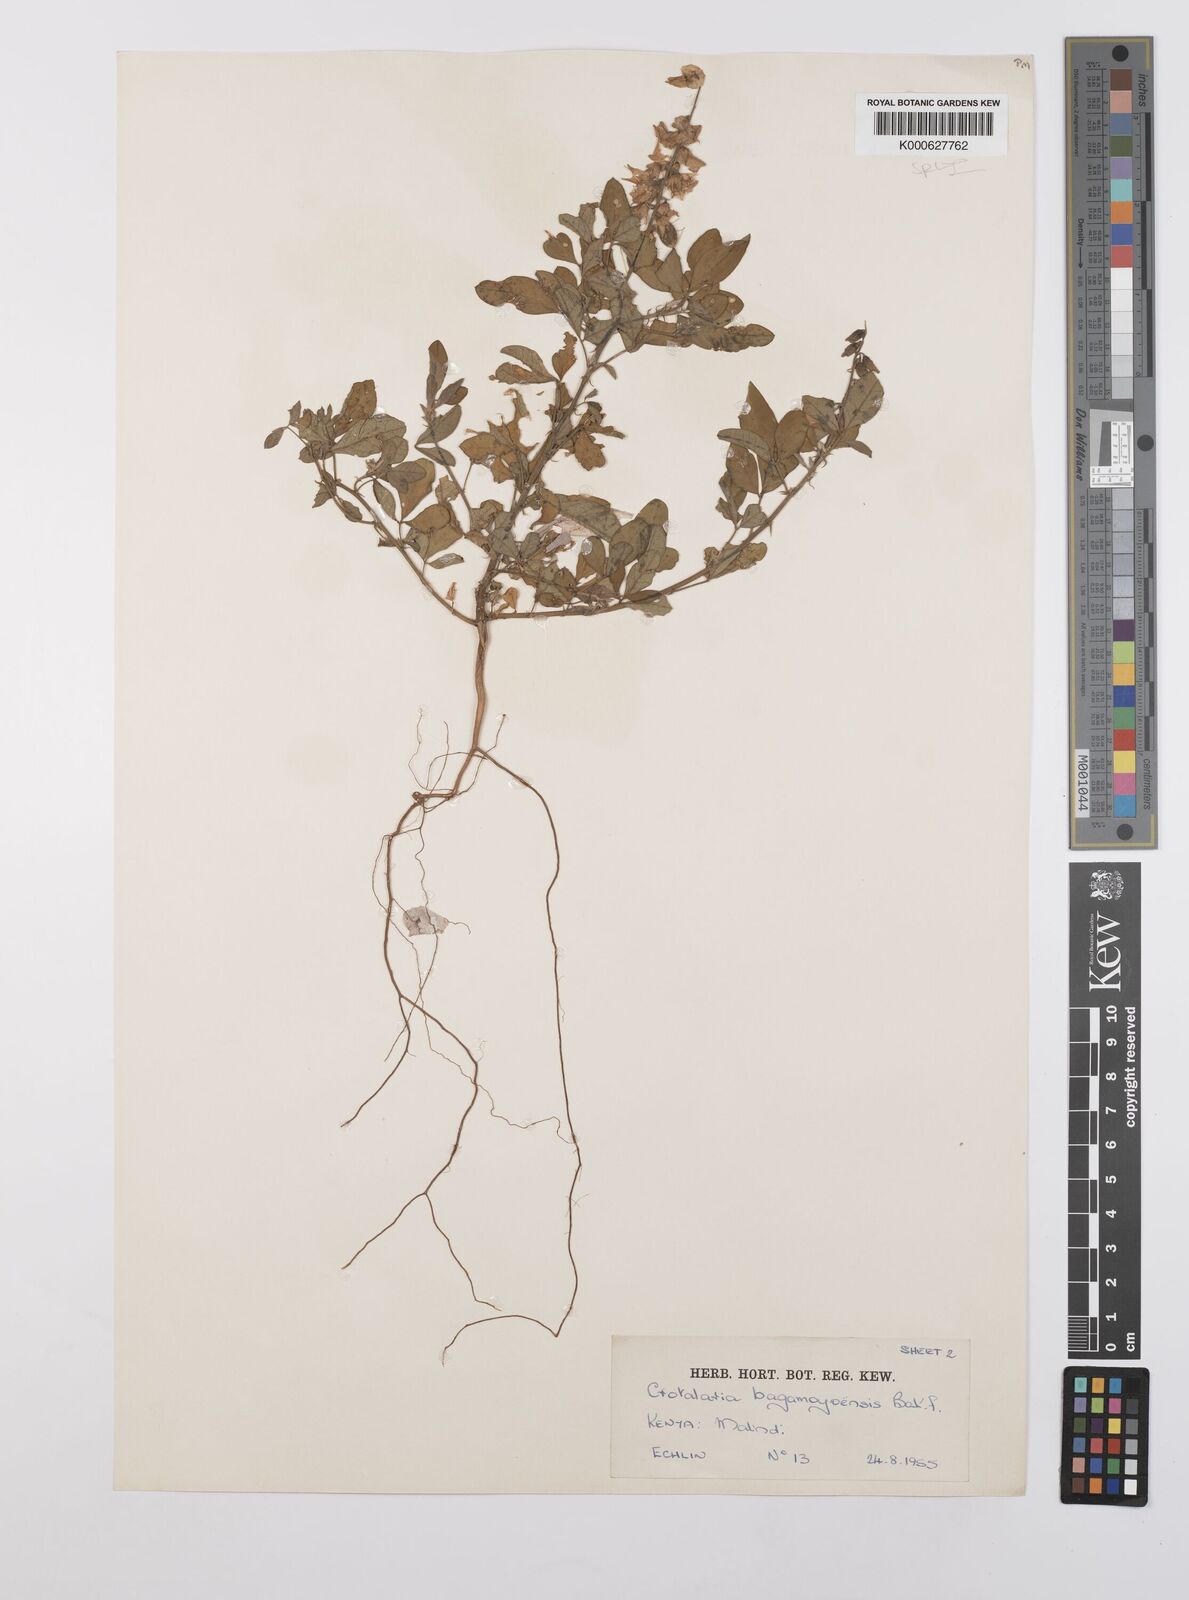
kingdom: Plantae
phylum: Tracheophyta
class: Magnoliopsida
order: Fabales
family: Fabaceae
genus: Crotalaria
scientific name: Crotalaria laburnoides
